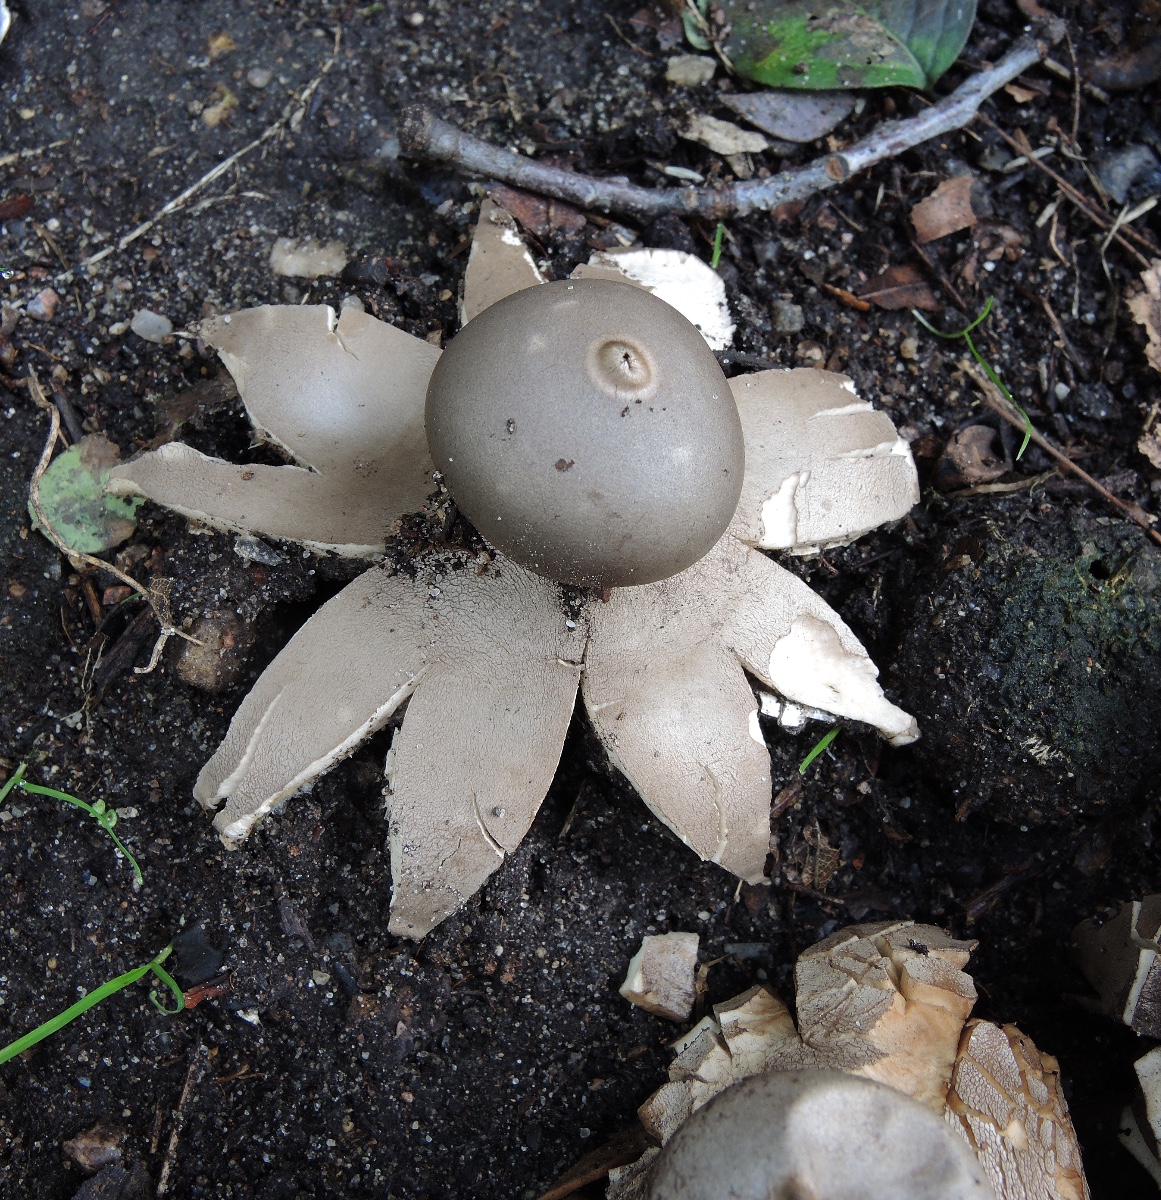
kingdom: Fungi
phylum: Basidiomycota
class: Agaricomycetes
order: Geastrales
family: Geastraceae
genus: Geastrum
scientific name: Geastrum coronatum
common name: mørk stjernebold
